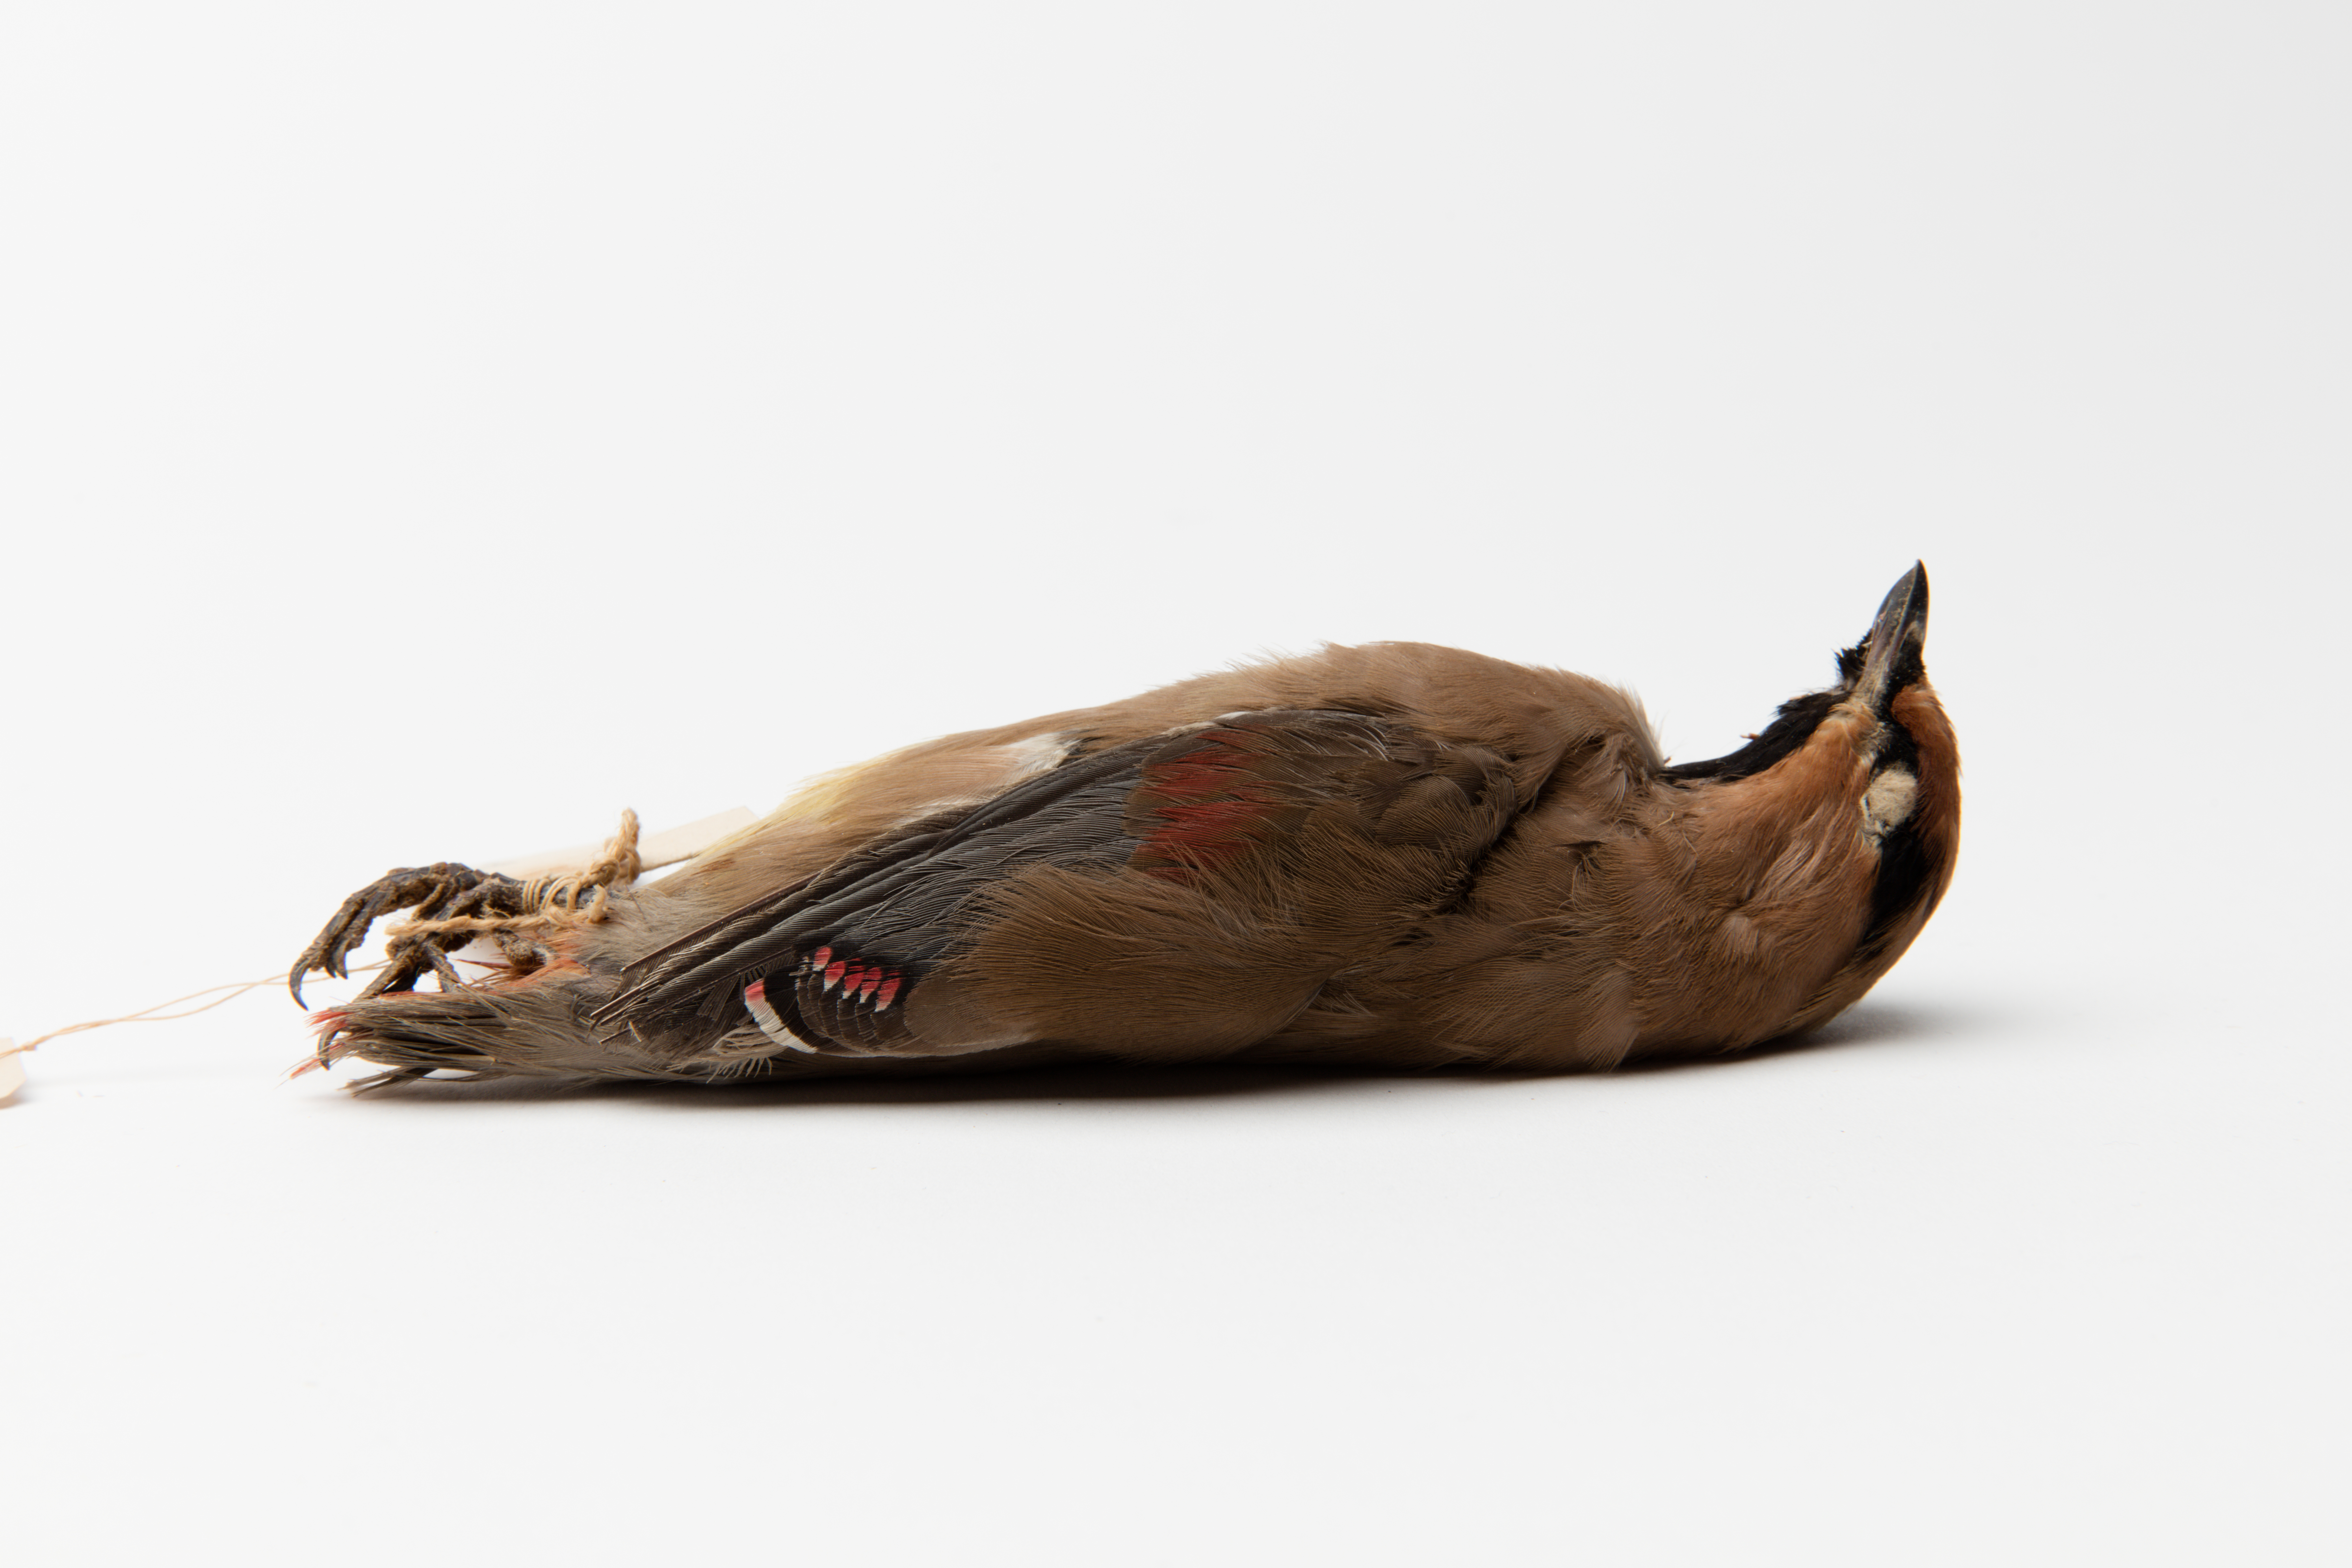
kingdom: Animalia
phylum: Chordata
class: Aves
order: Passeriformes
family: Bombycillidae
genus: Bombycilla
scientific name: Bombycilla japonica
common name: Japanese waxwing
